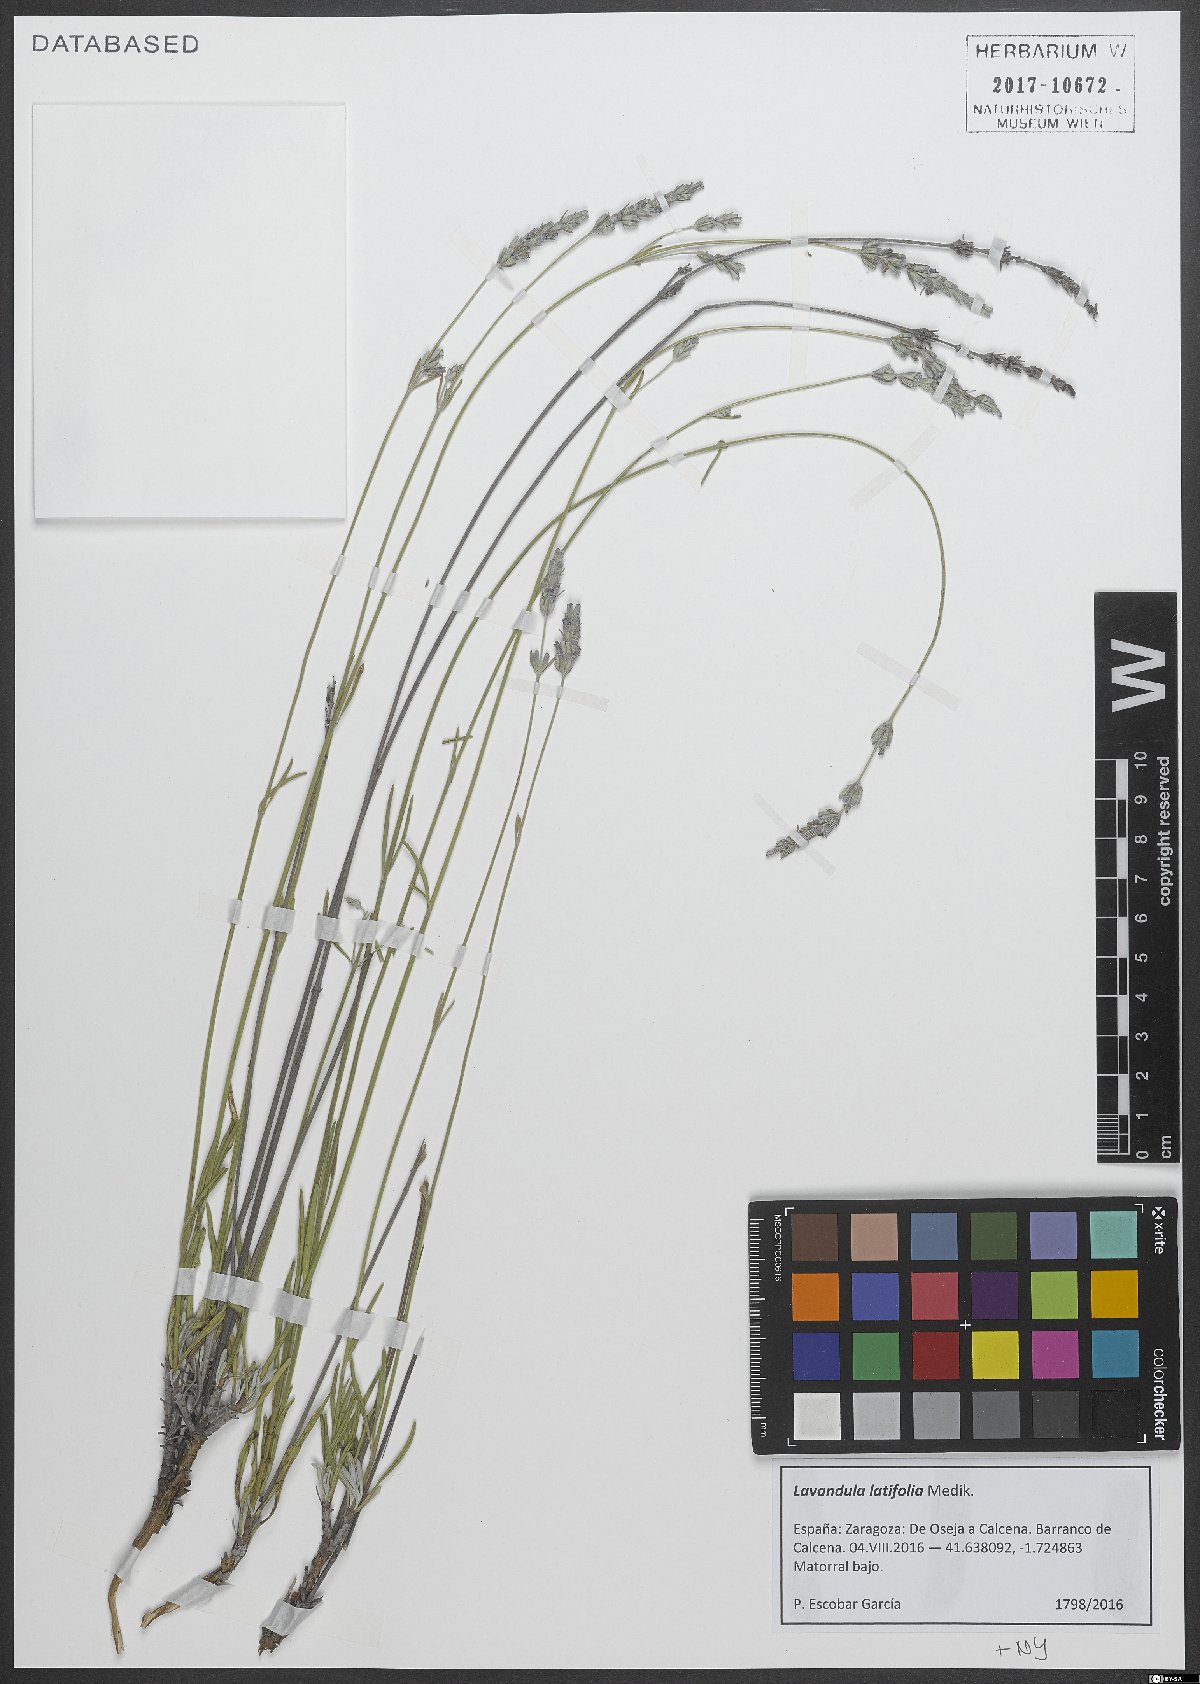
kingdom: Plantae
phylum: Tracheophyta
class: Magnoliopsida
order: Lamiales
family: Lamiaceae
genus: Lavandula
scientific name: Lavandula latifolia
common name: Spike lavendar
